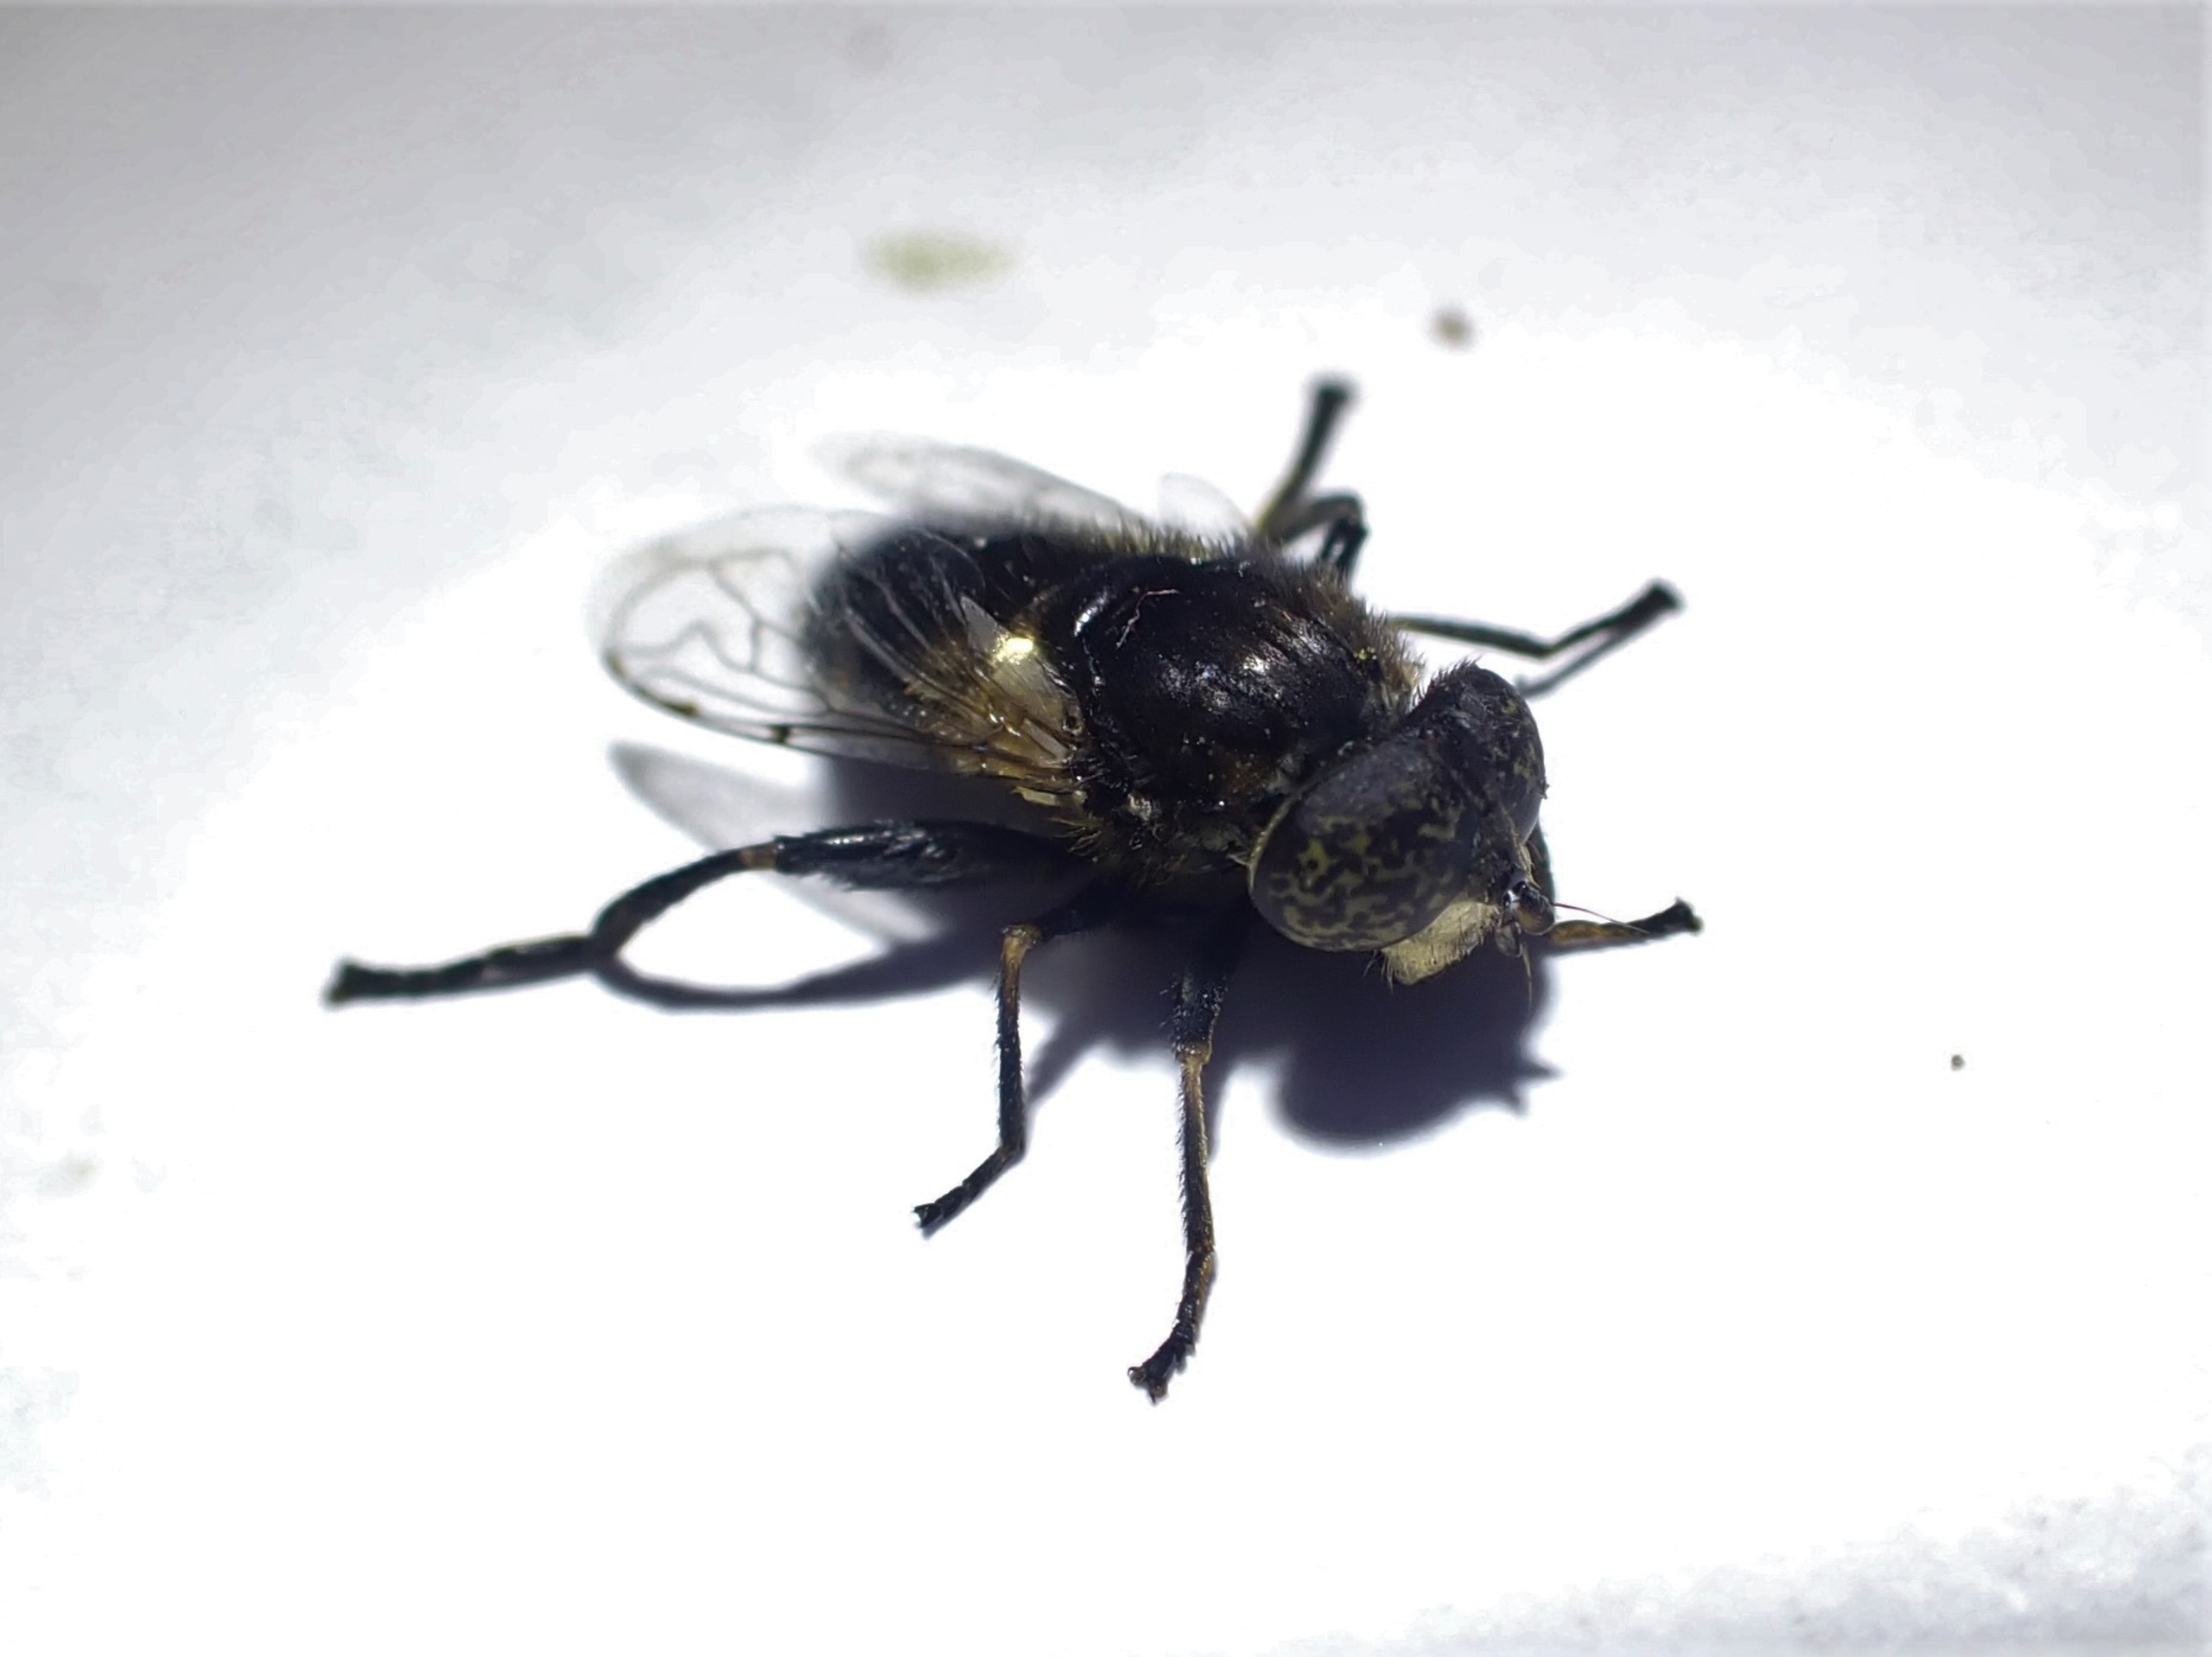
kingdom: Animalia
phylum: Arthropoda
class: Insecta
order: Diptera
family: Syrphidae
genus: Eristalinus
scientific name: Eristalinus sepulchralis
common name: Gødnings-dyndflue
